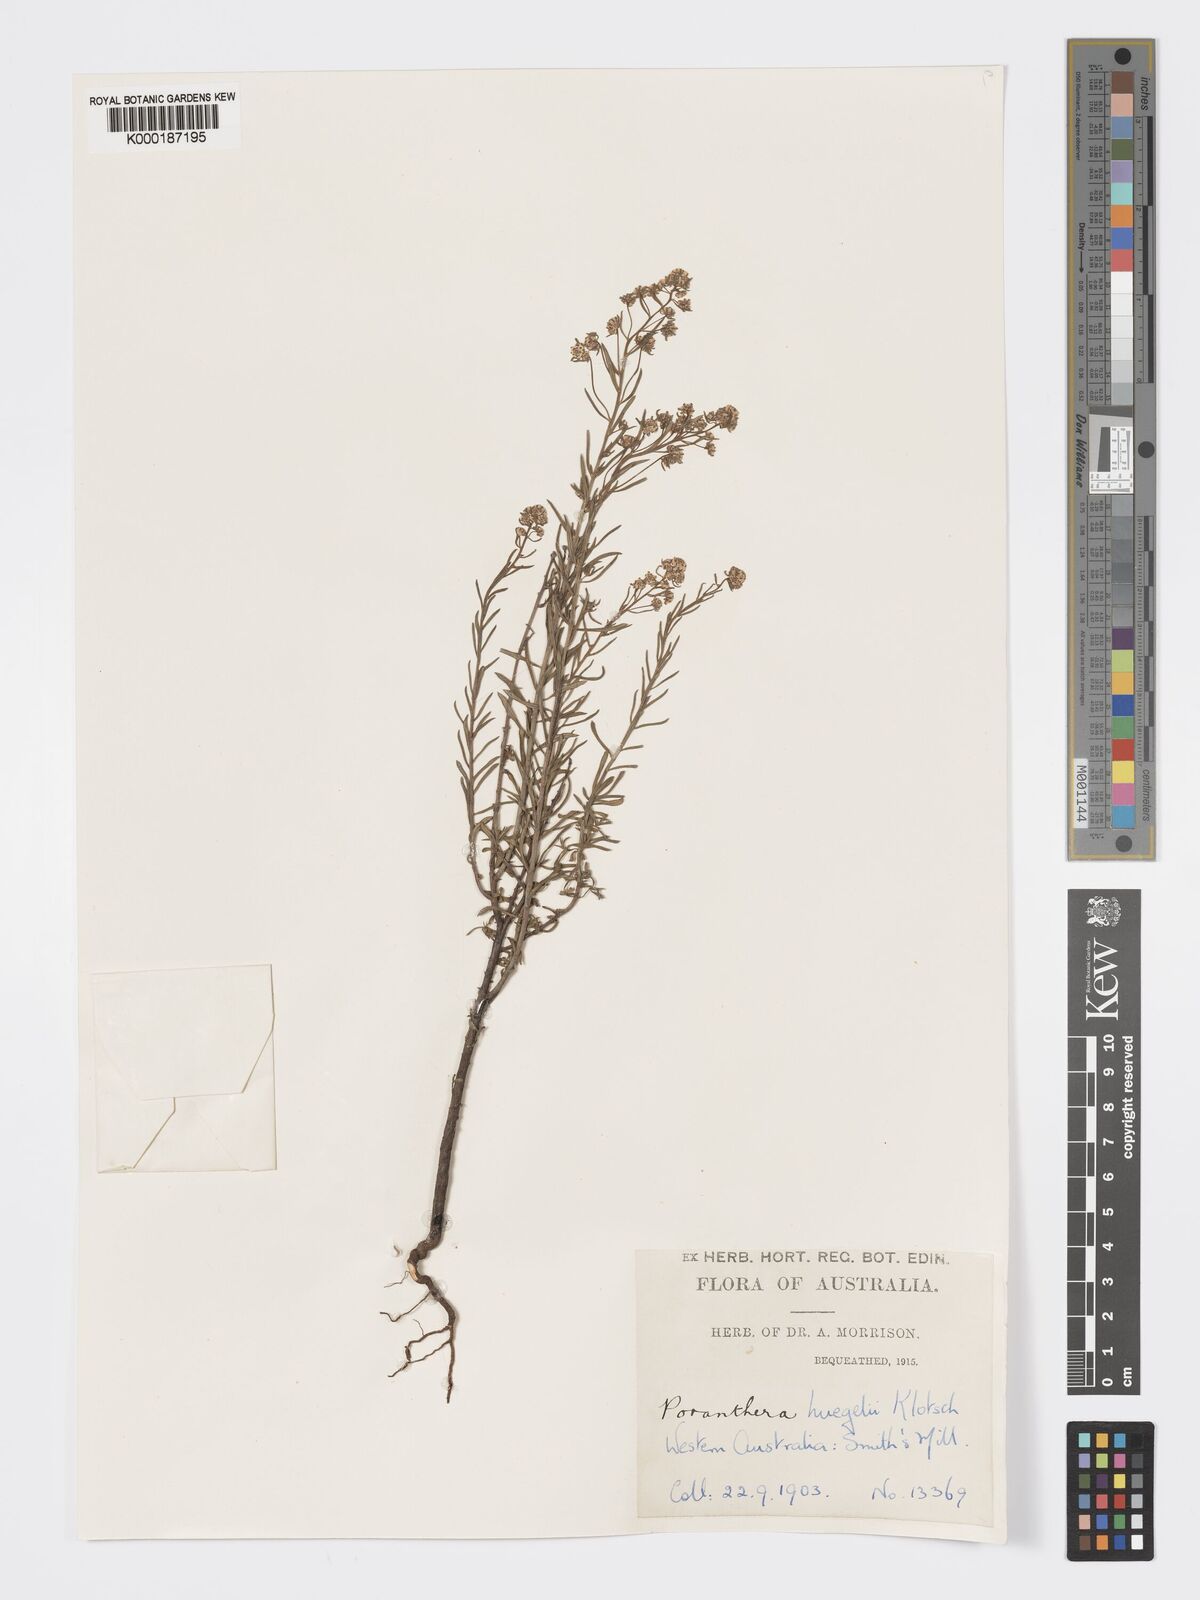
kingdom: Plantae
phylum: Tracheophyta
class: Magnoliopsida
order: Malpighiales
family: Phyllanthaceae
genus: Poranthera
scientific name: Poranthera huegelii
